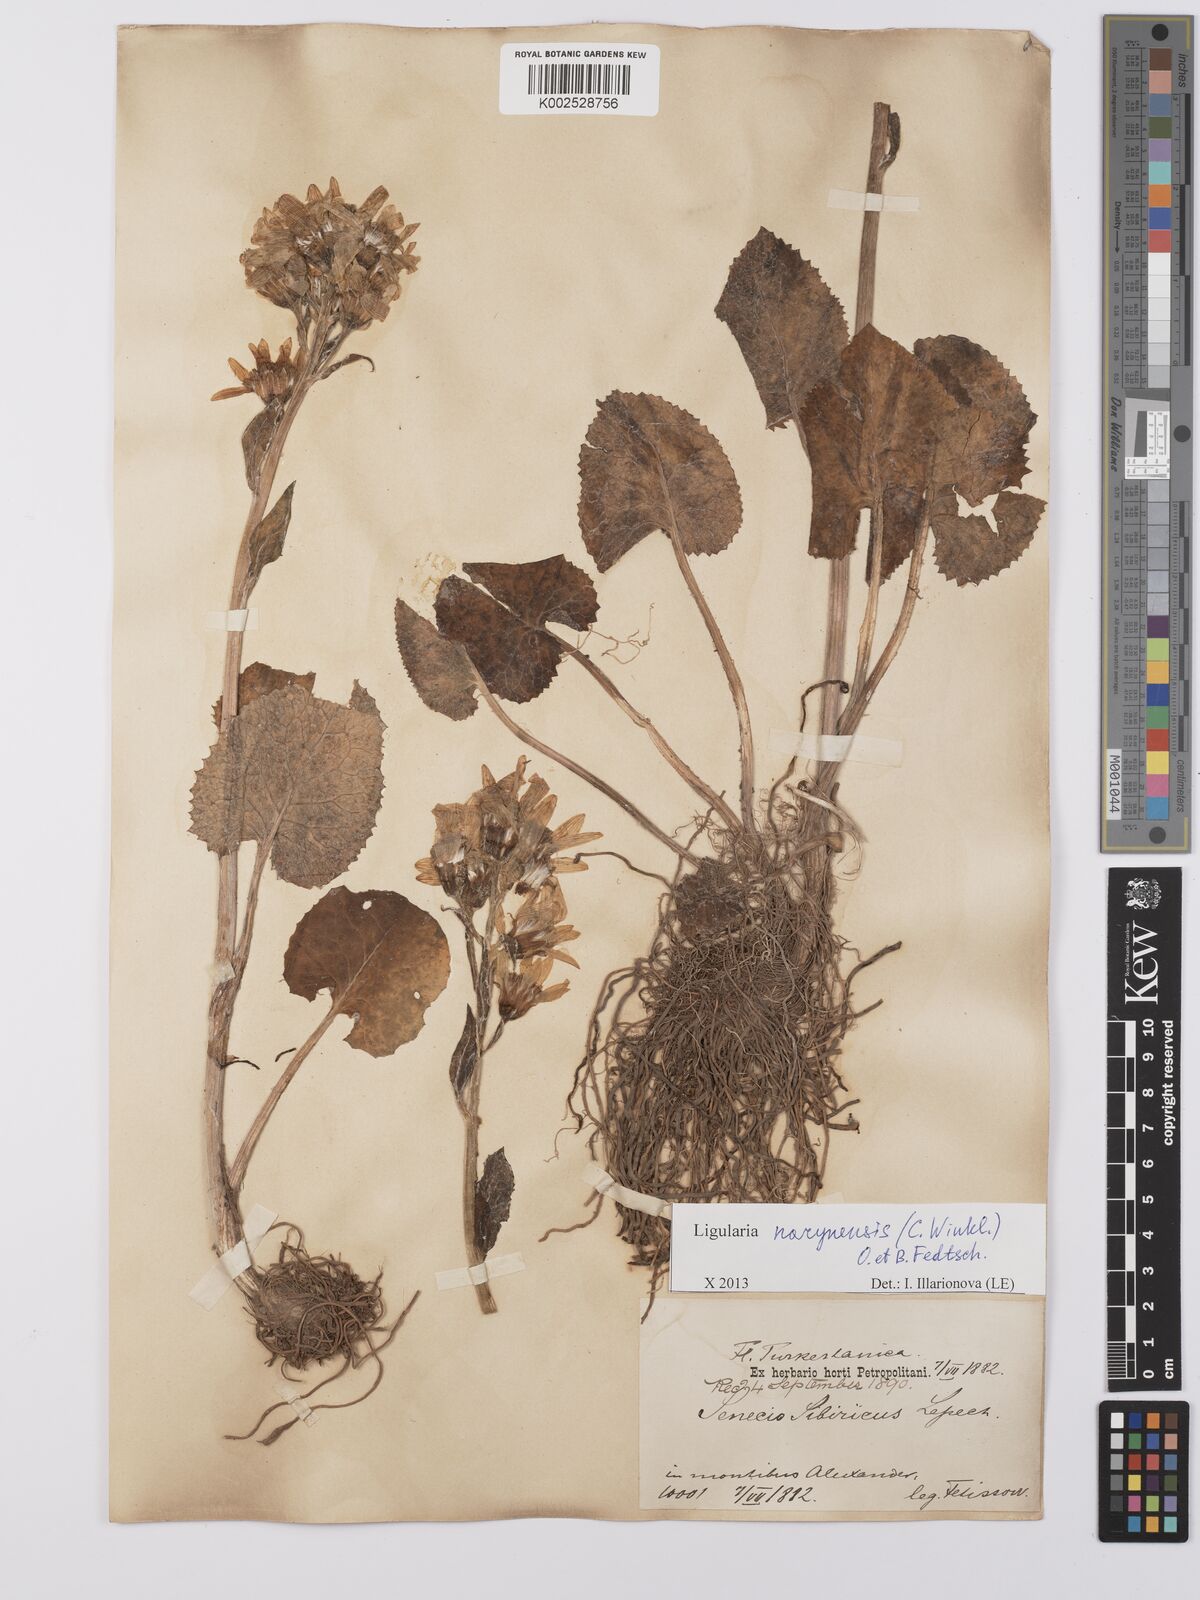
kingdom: Plantae
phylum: Tracheophyta
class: Magnoliopsida
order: Asterales
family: Asteraceae
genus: Vickifunkia
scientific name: Vickifunkia narynensis
